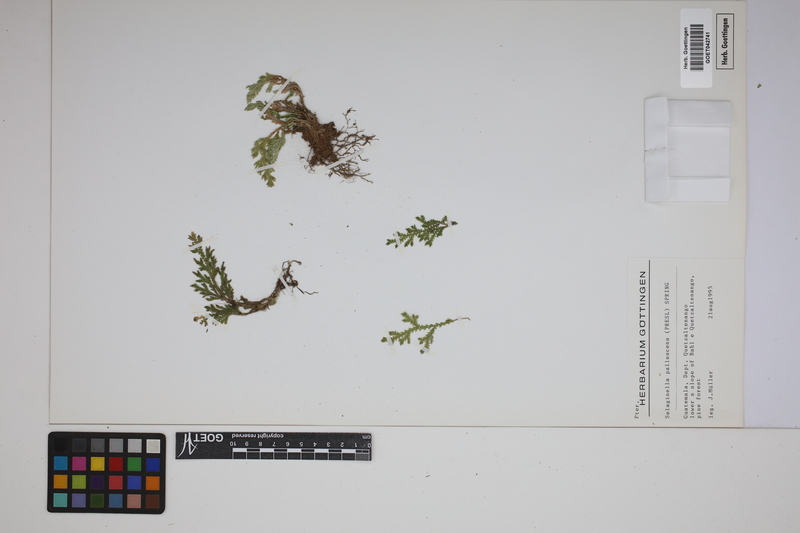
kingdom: Plantae
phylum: Tracheophyta
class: Lycopodiopsida
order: Selaginellales
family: Selaginellaceae
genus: Selaginella
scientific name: Selaginella pallescens
